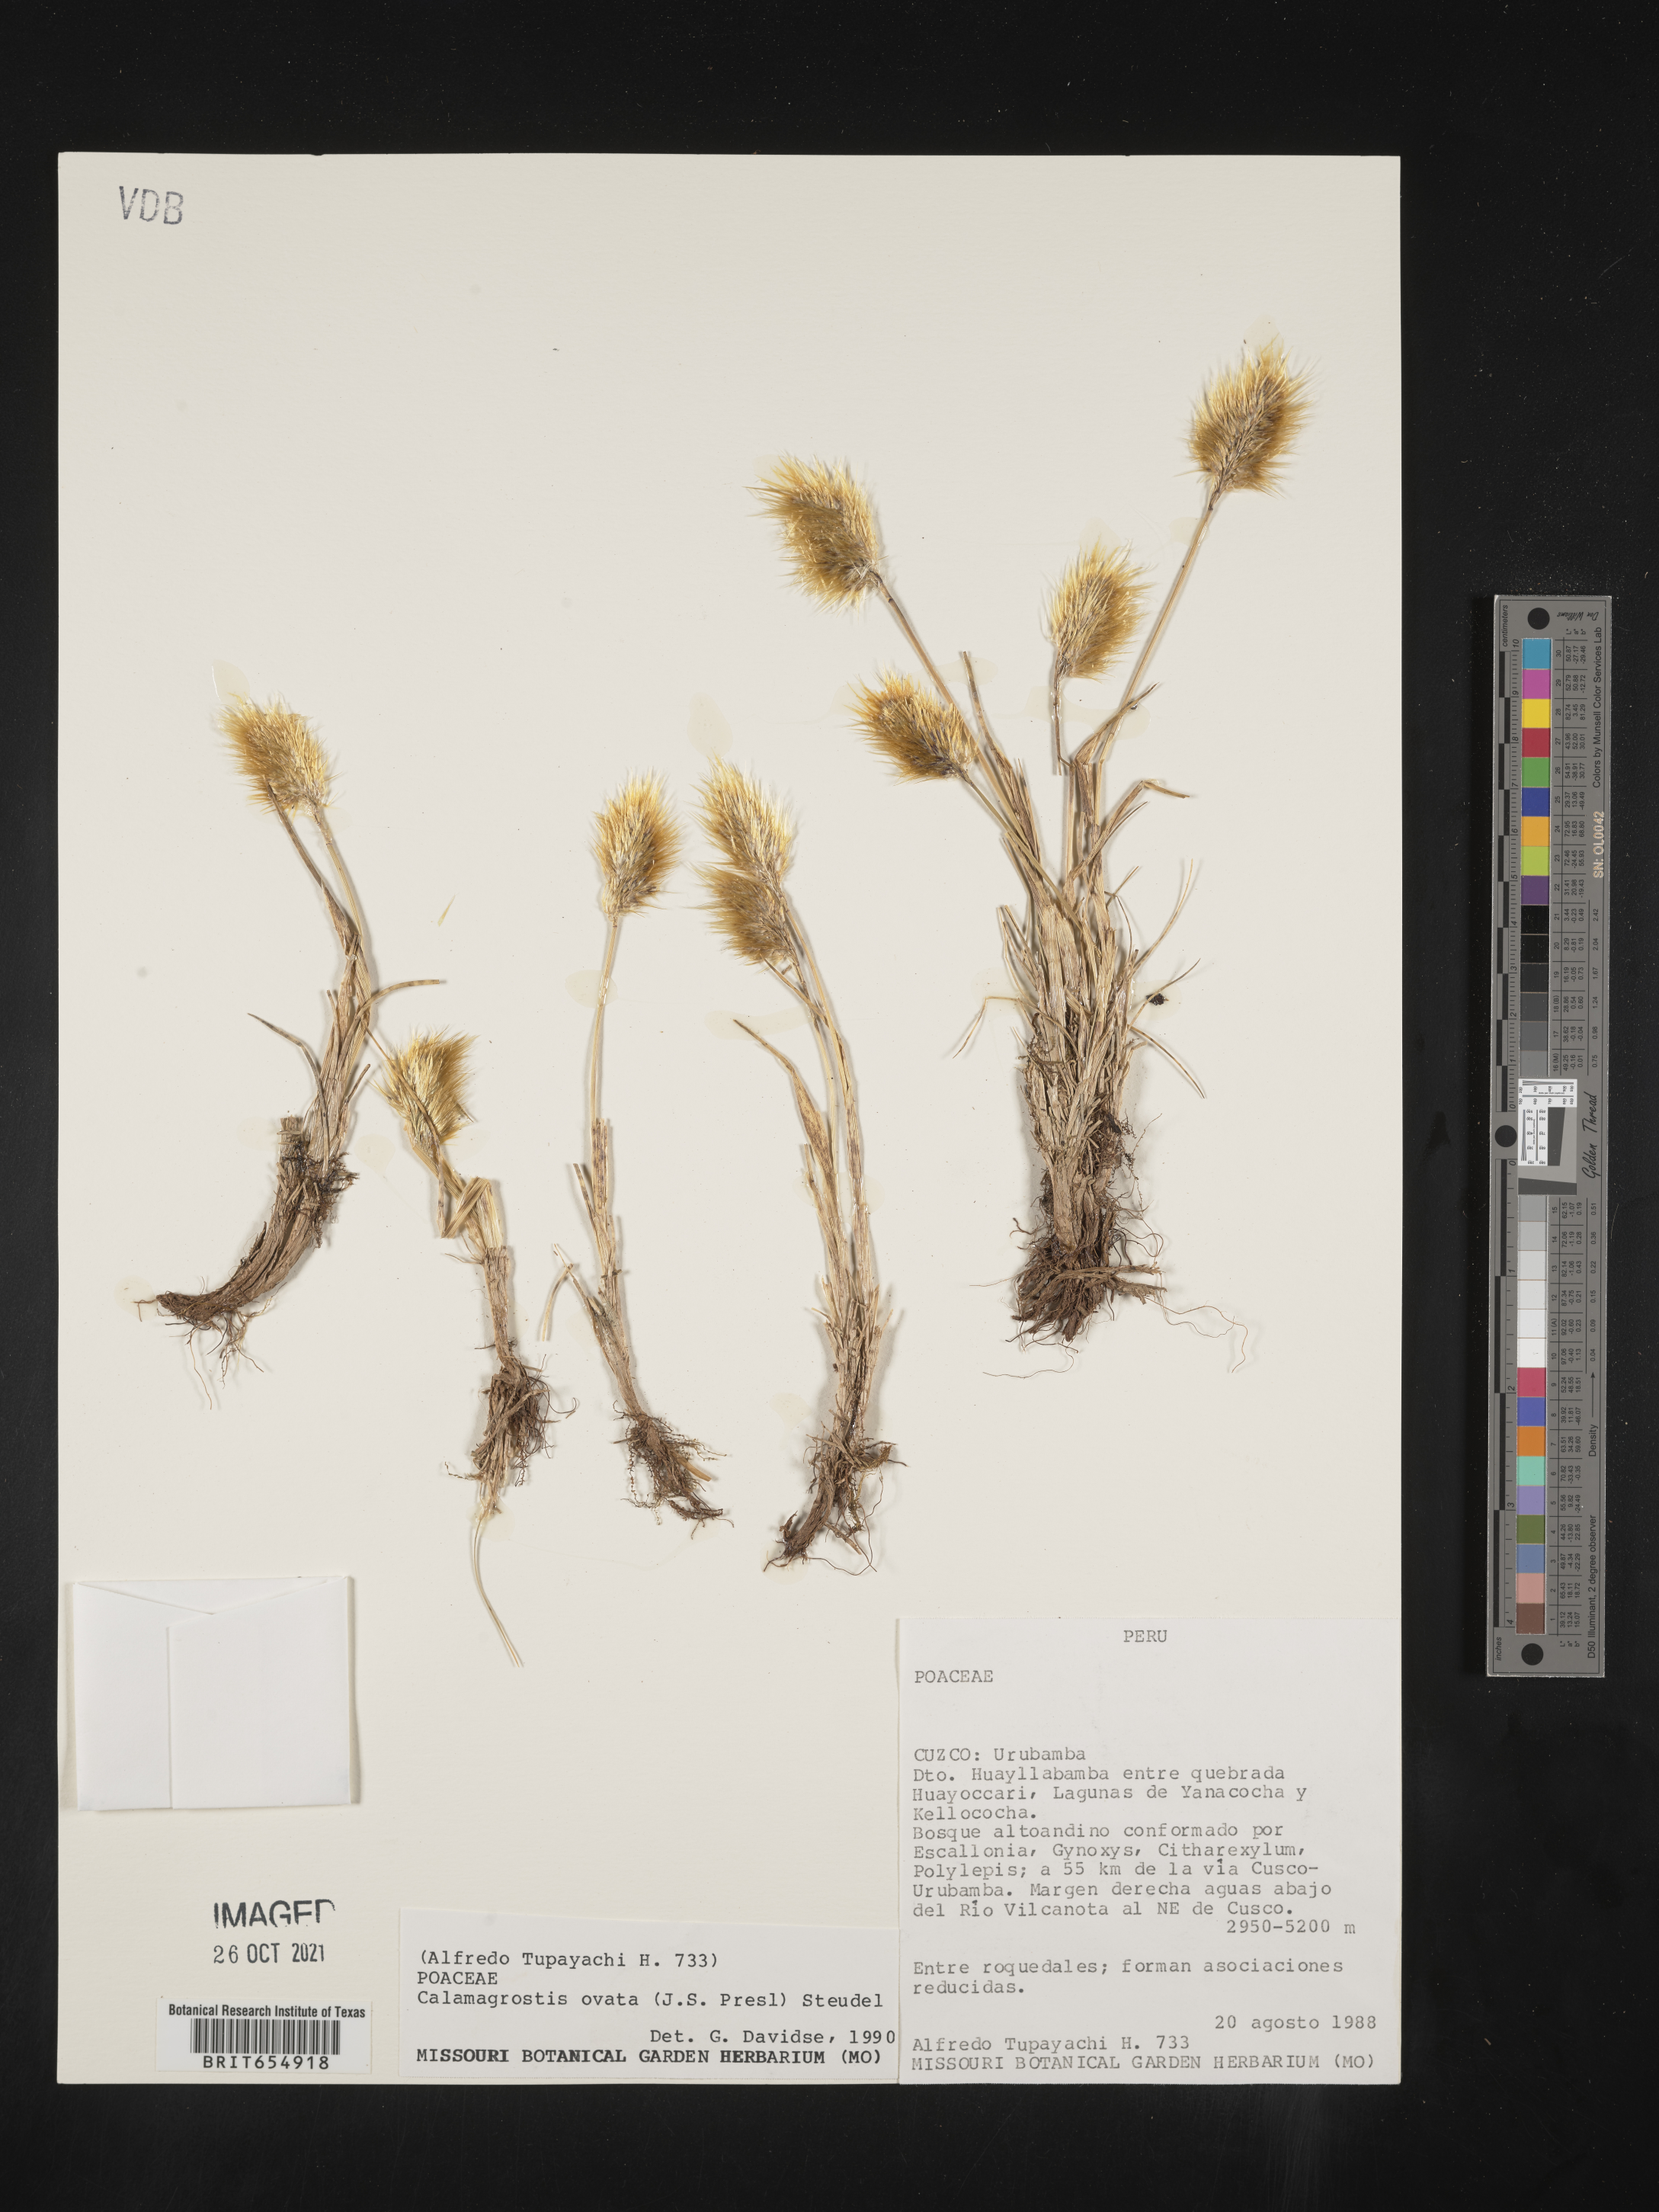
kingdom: Plantae
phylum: Tracheophyta
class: Liliopsida
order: Poales
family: Poaceae
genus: Calamagrostis
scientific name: Calamagrostis
